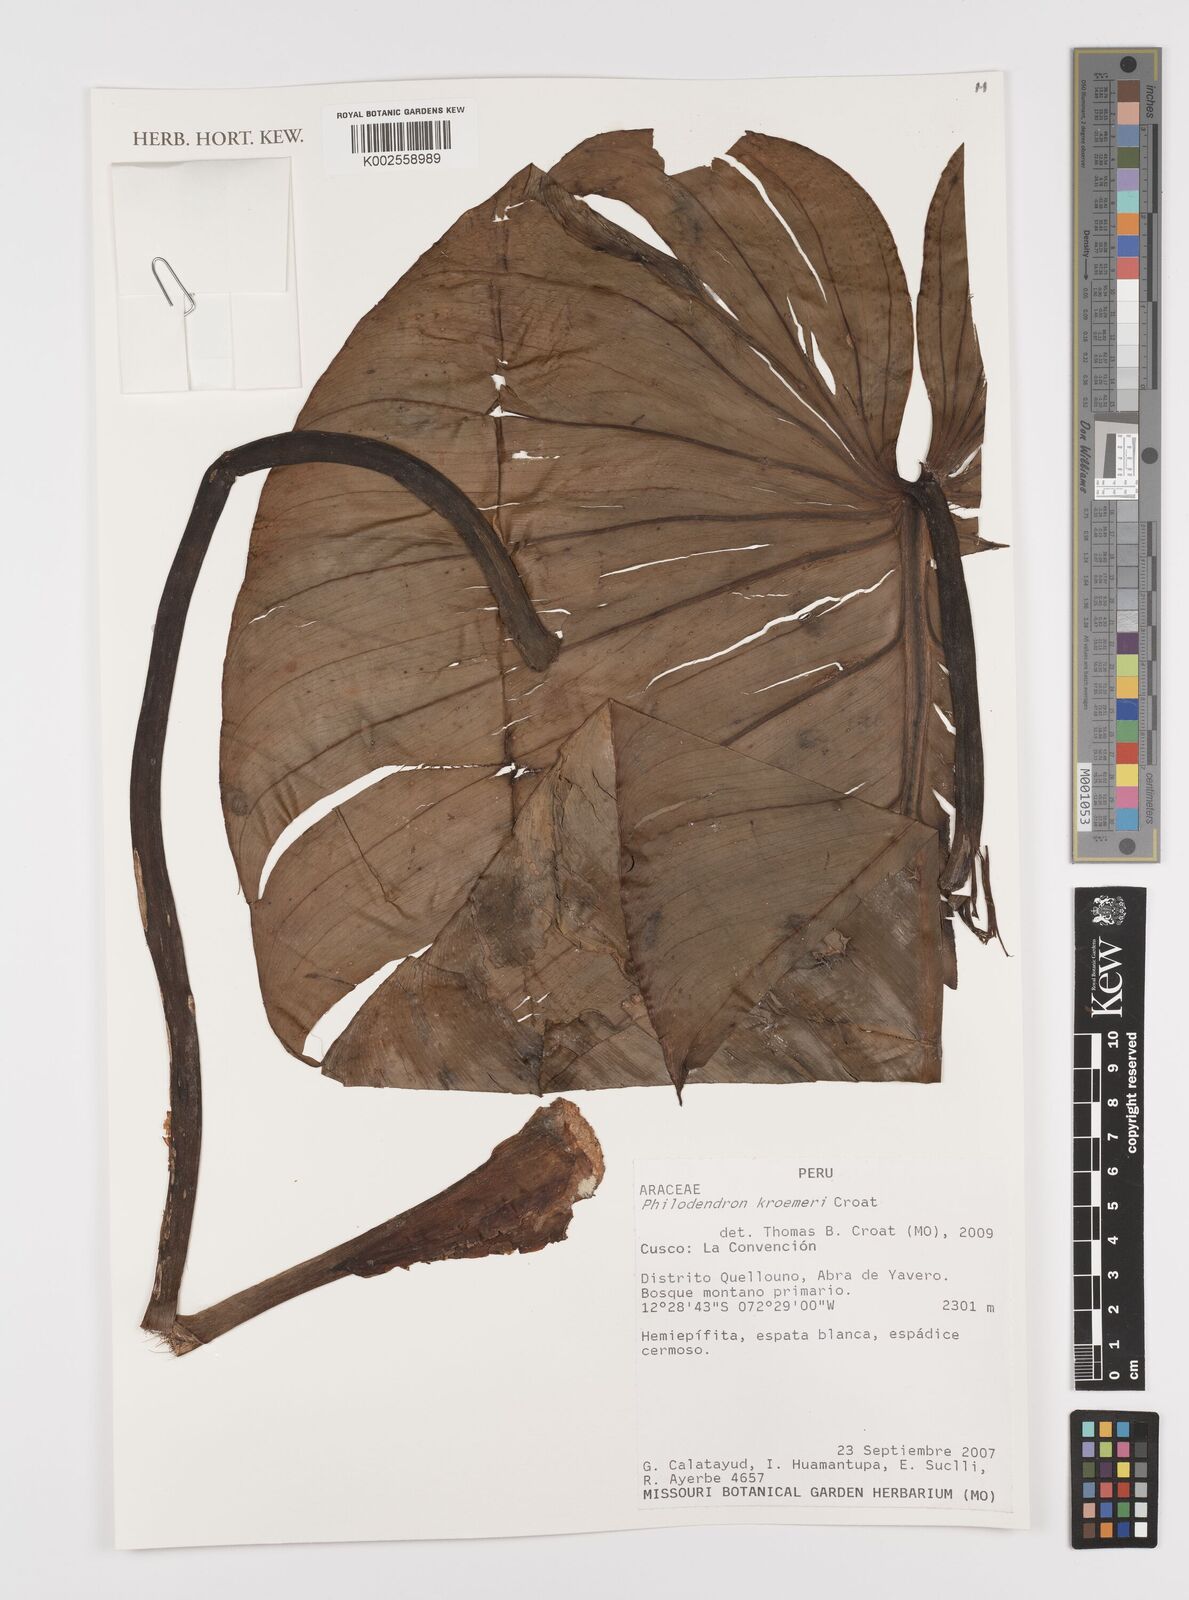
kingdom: Plantae
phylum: Tracheophyta
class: Liliopsida
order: Alismatales
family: Araceae
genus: Philodendron
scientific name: Philodendron kroemeri
